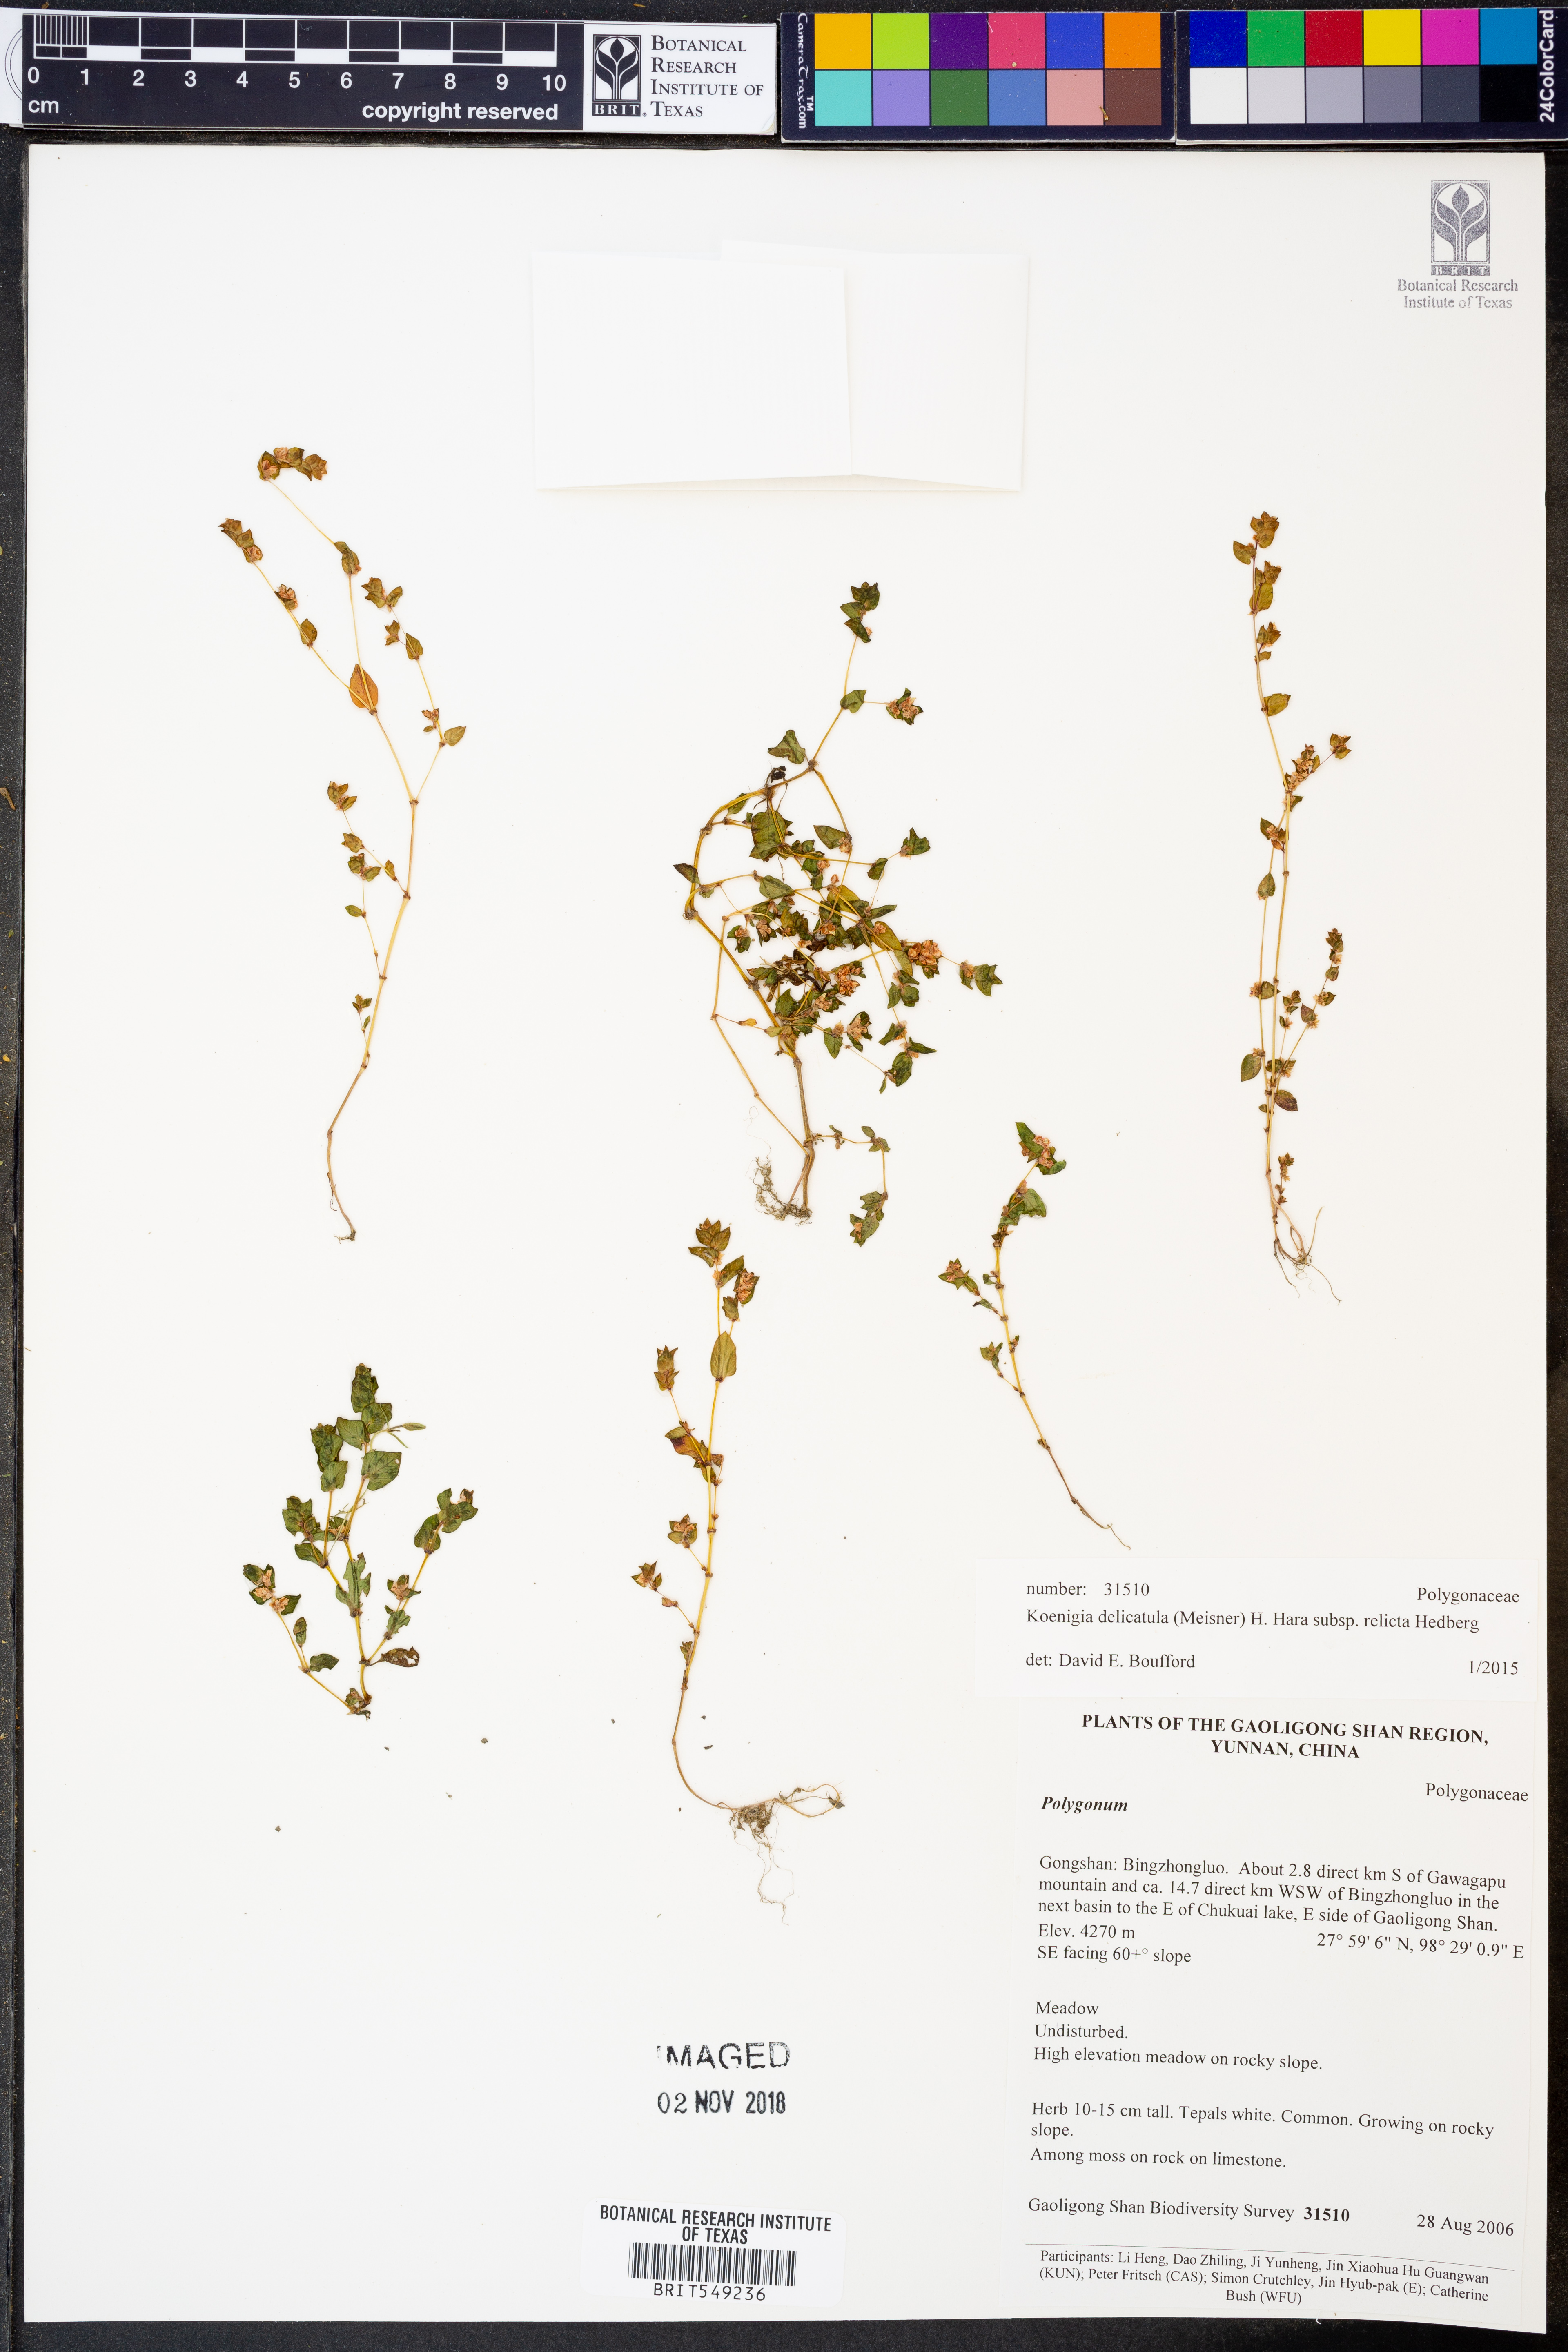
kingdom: Plantae
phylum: Tracheophyta
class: Magnoliopsida
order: Caryophyllales
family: Polygonaceae
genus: Koenigia
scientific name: Koenigia delicatula
